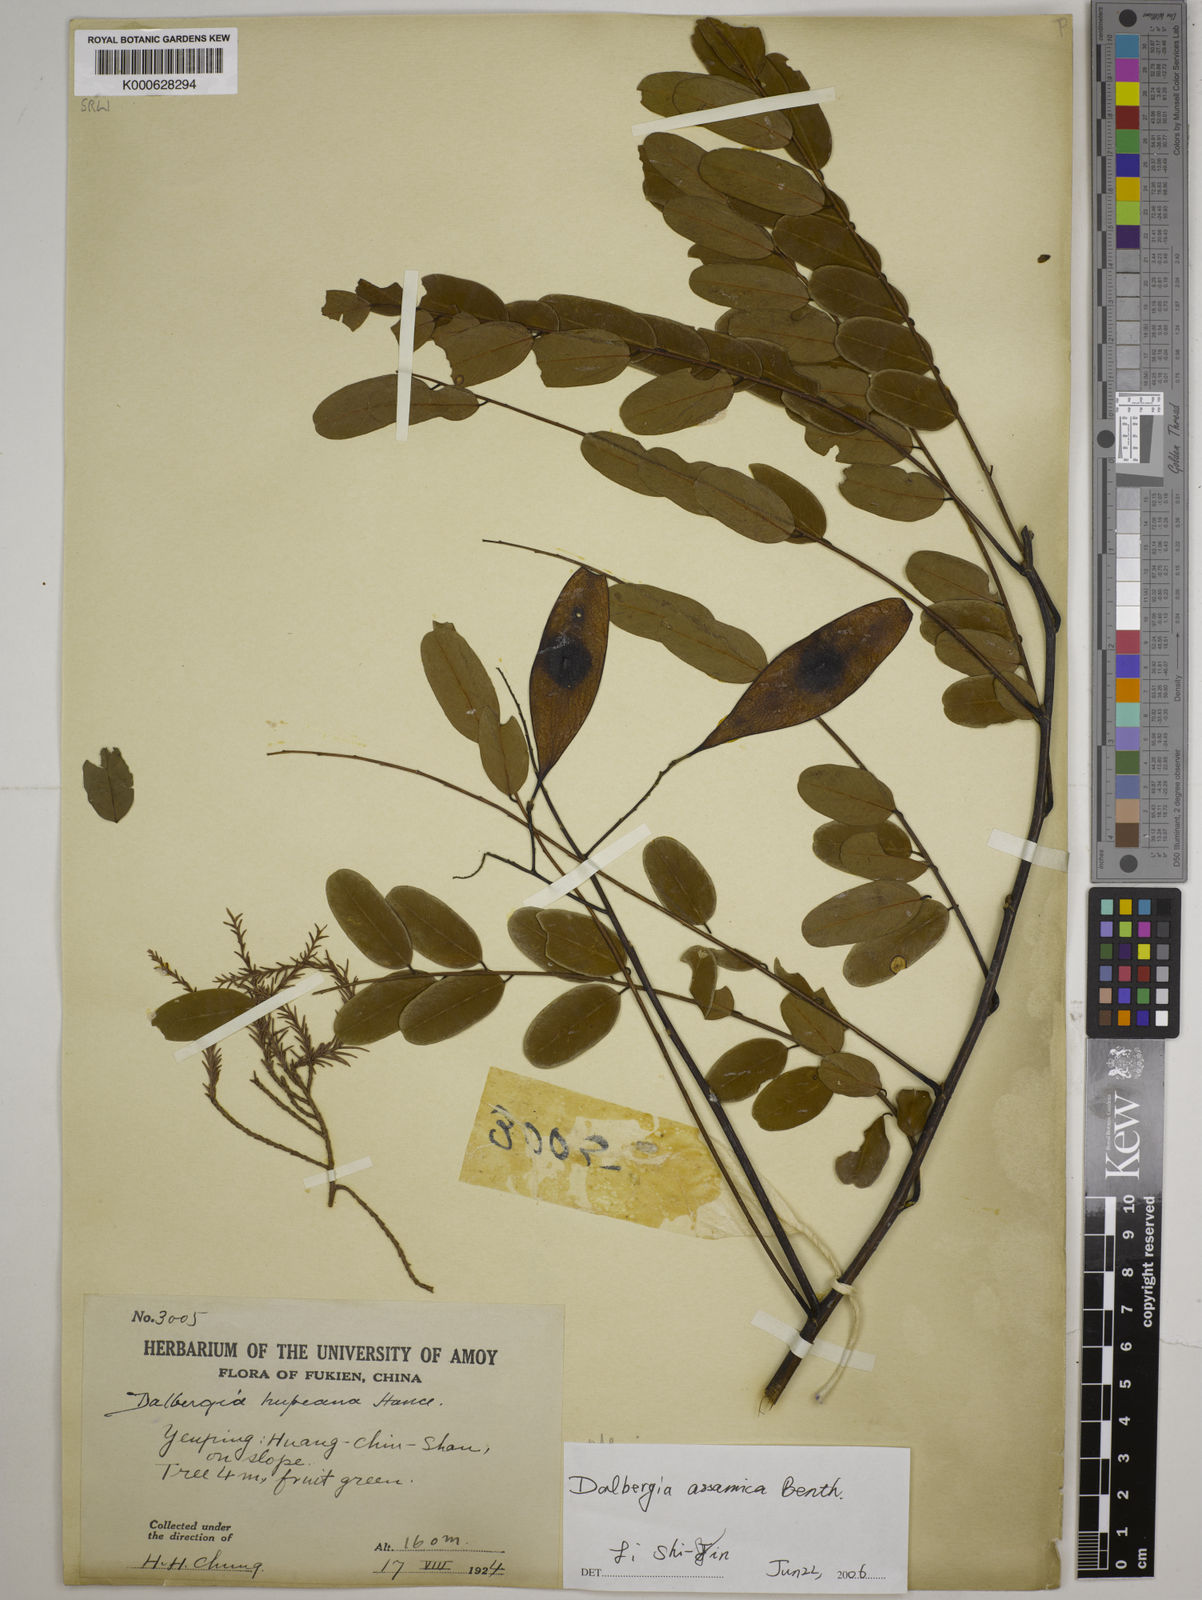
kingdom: Plantae
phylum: Tracheophyta
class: Magnoliopsida
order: Fabales
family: Fabaceae
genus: Dalbergia
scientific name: Dalbergia assamica
